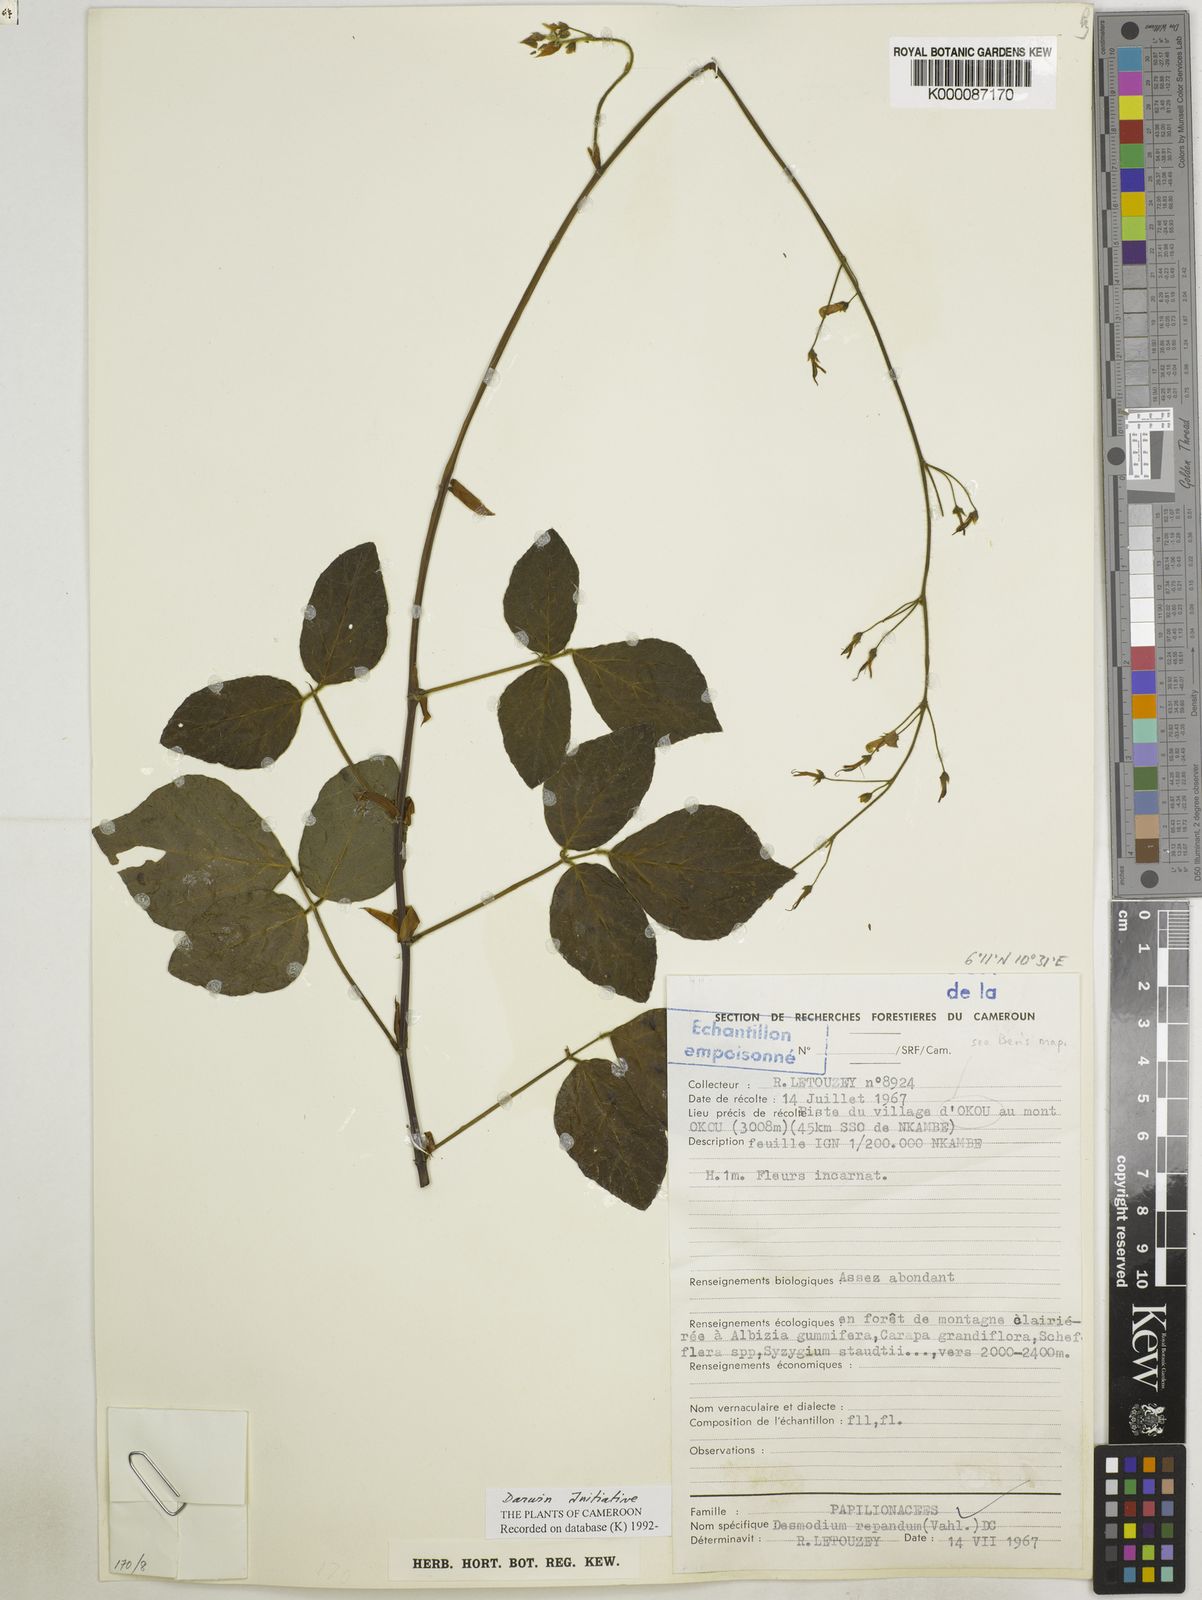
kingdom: Plantae
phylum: Tracheophyta
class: Magnoliopsida
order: Fabales
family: Fabaceae
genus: Desmodium
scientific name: Desmodium
